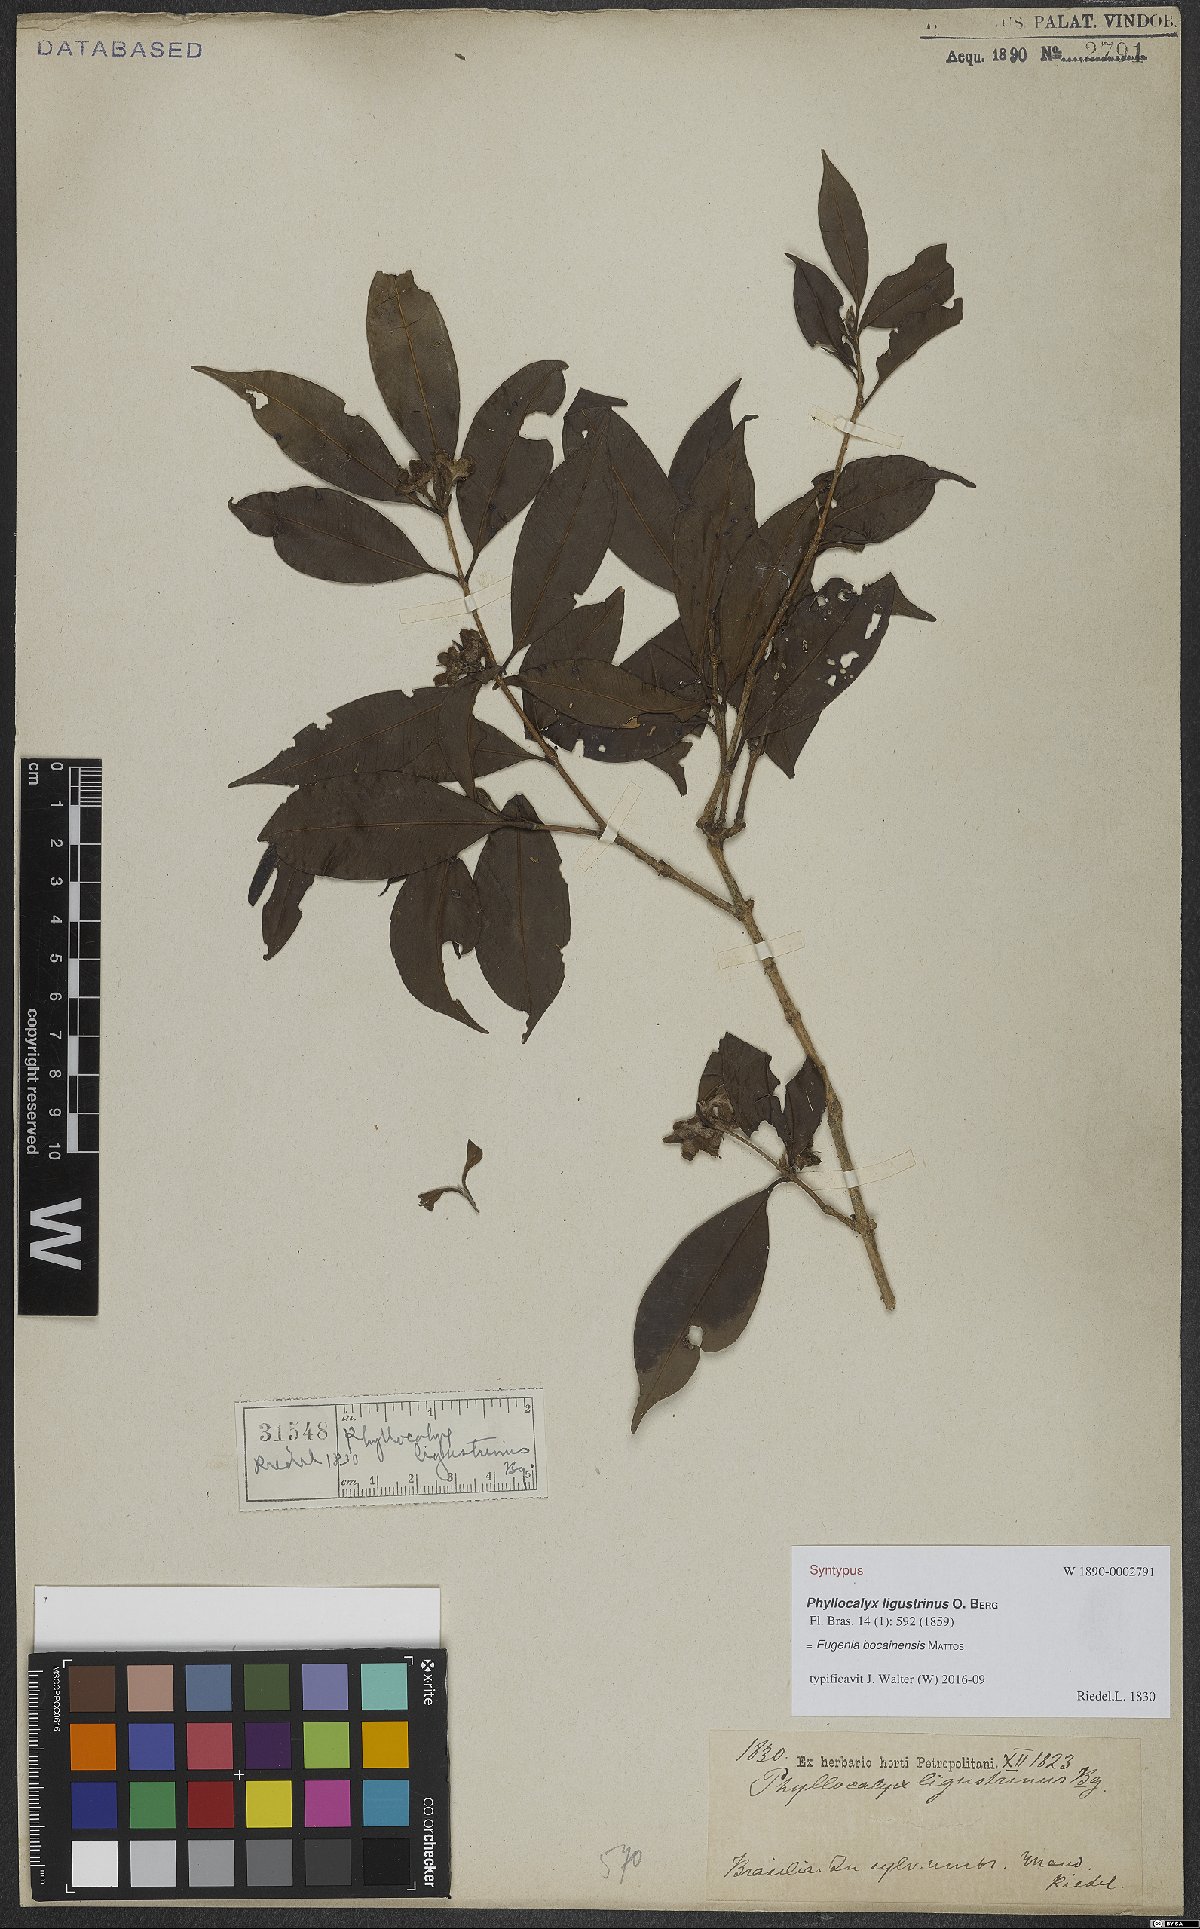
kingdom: Plantae
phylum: Tracheophyta
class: Magnoliopsida
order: Myrtales
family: Myrtaceae
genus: Eugenia
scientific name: Eugenia bocainensis
